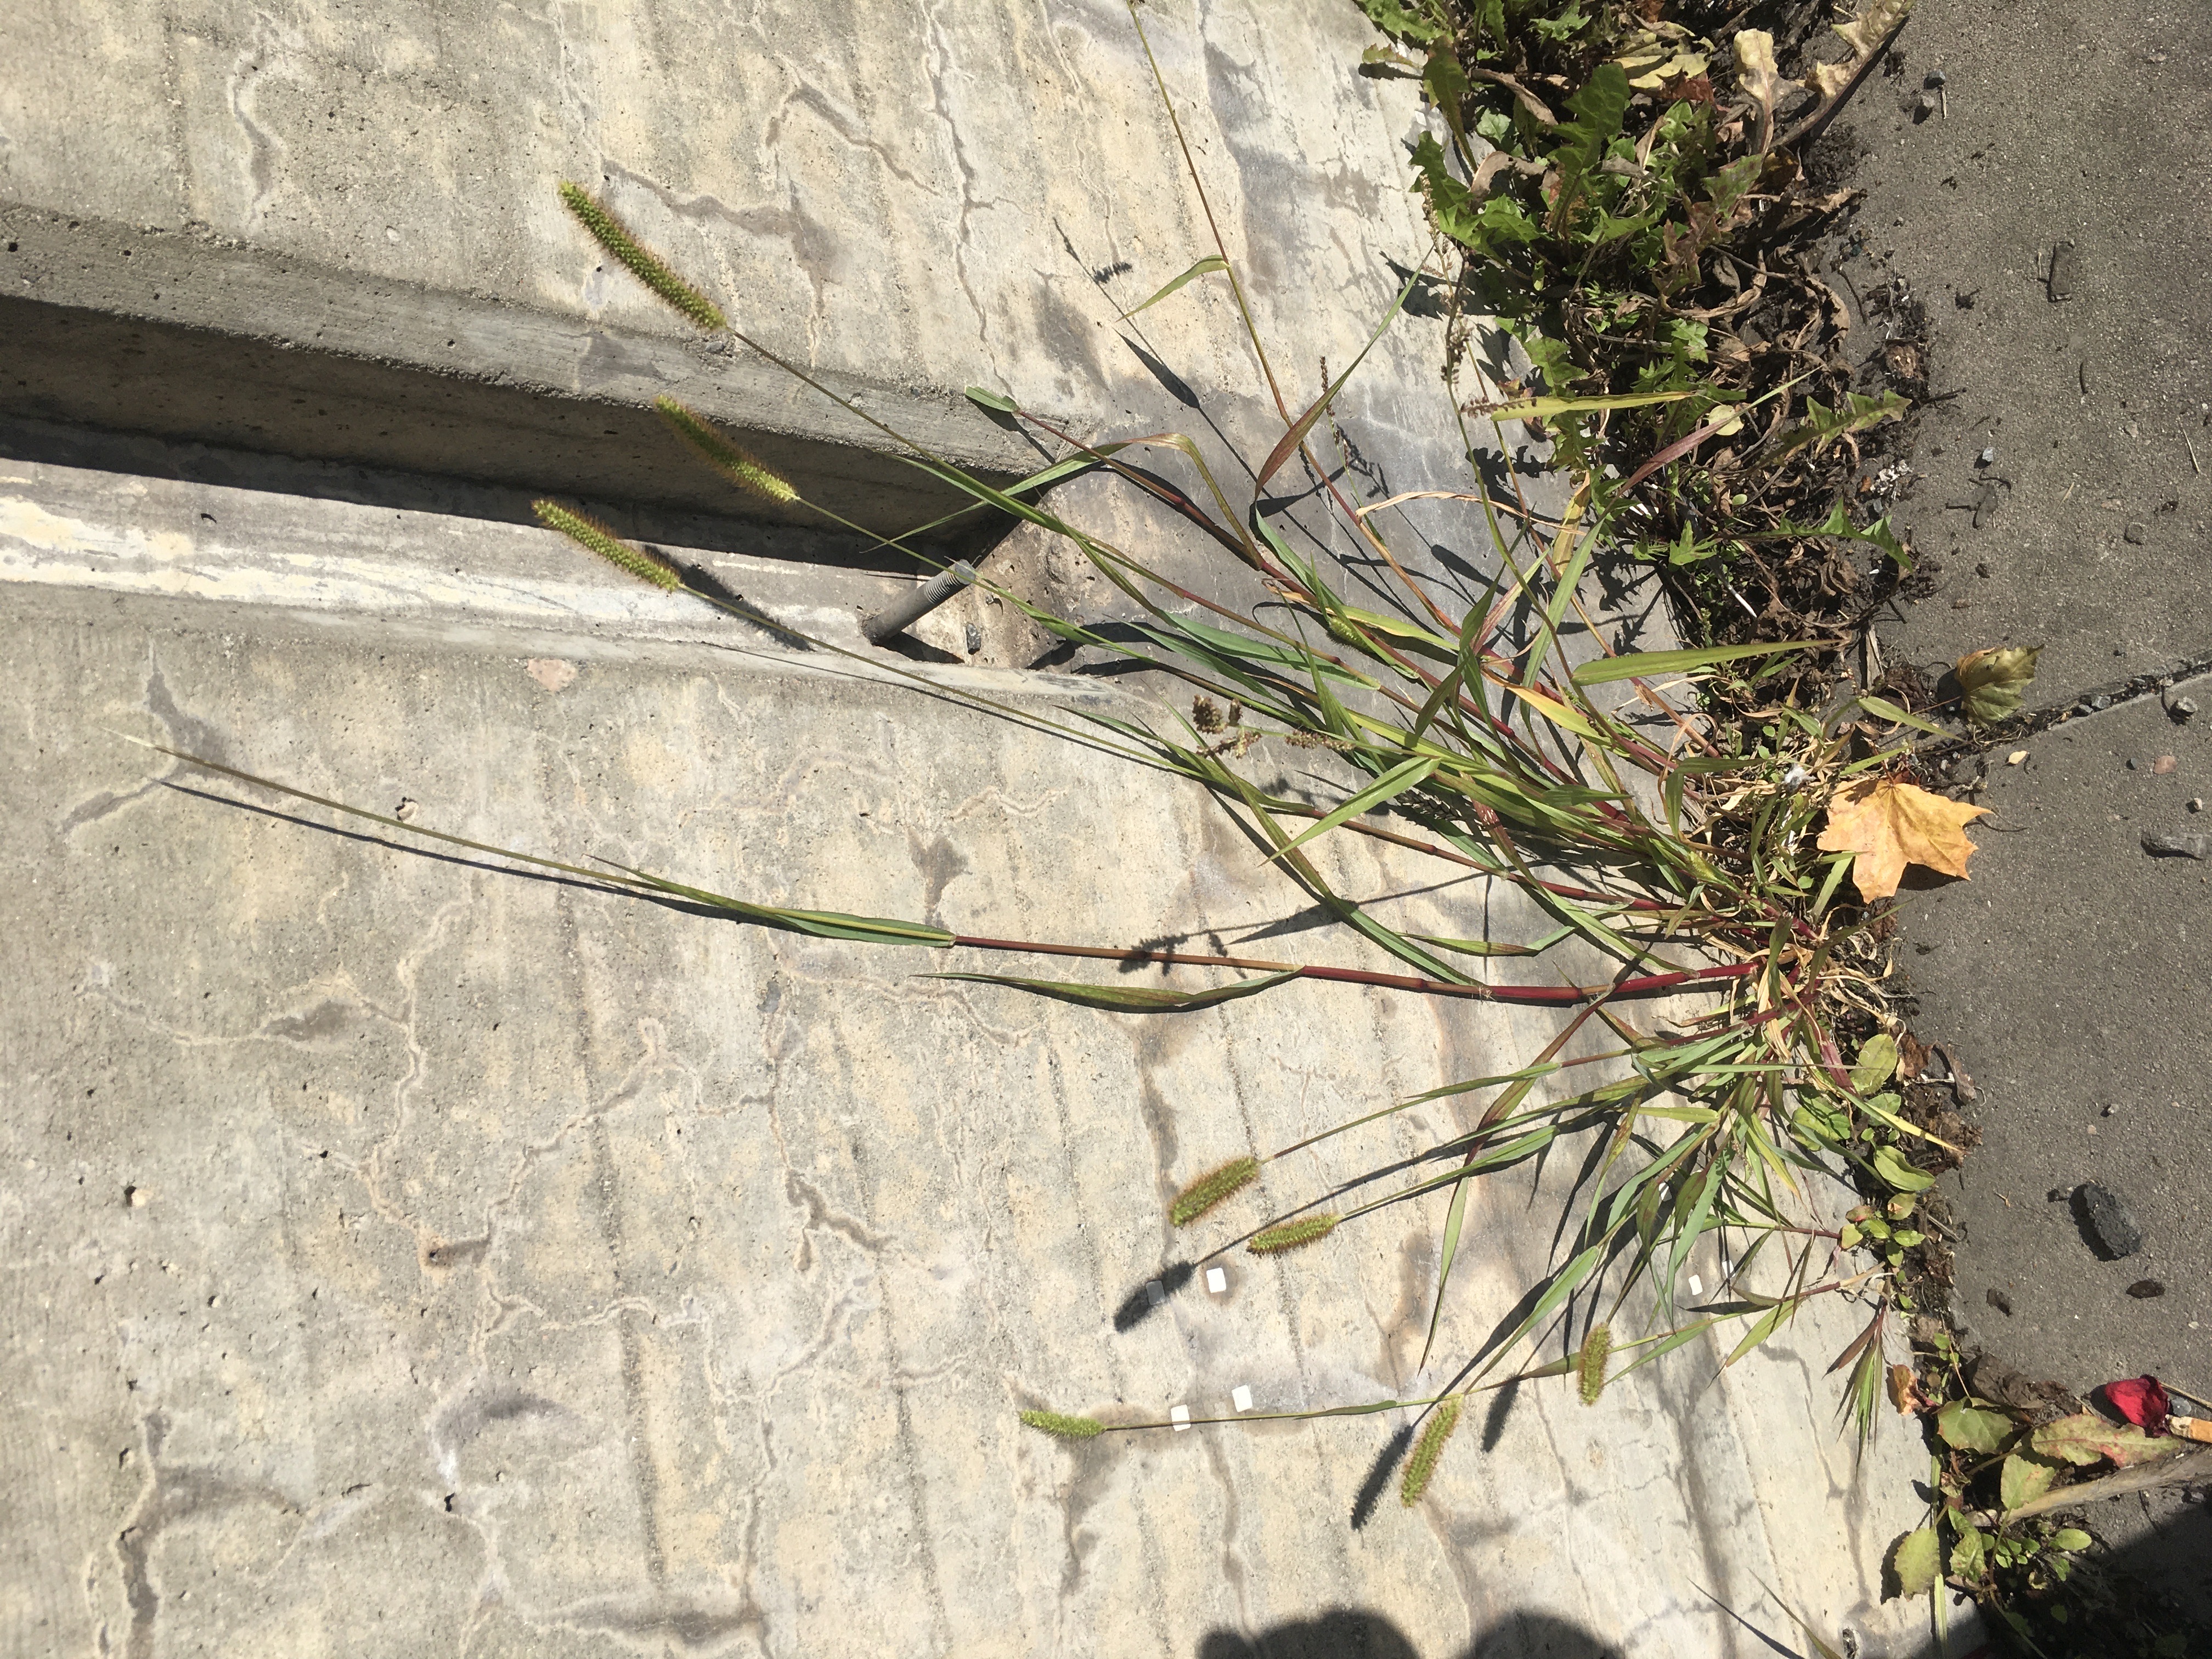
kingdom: Plantae
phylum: Tracheophyta
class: Liliopsida
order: Poales
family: Poaceae
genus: Setaria
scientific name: Setaria pumila
